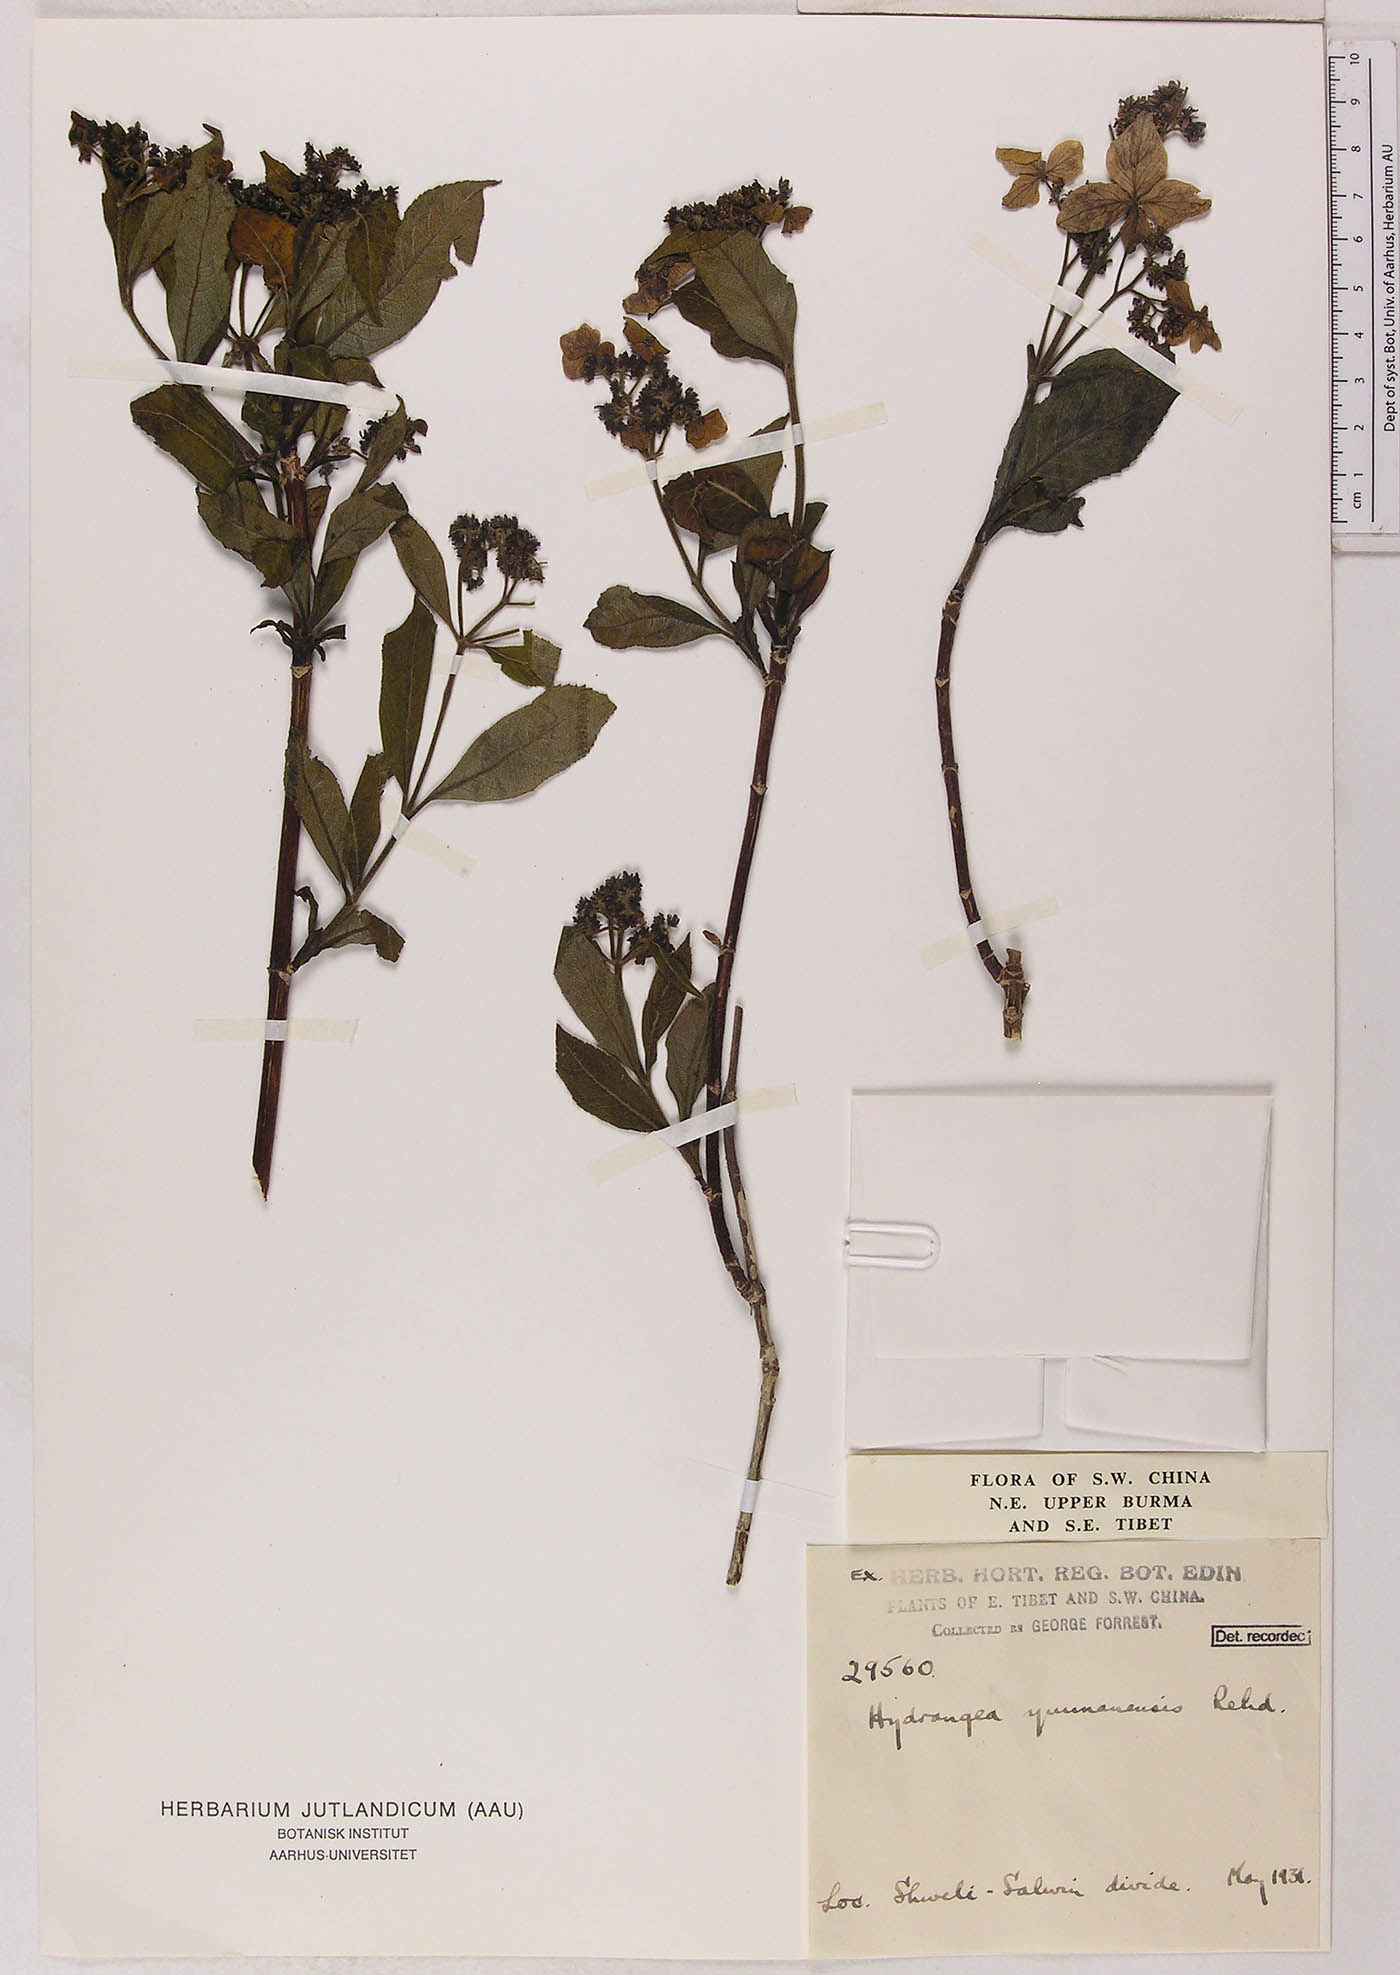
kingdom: Plantae
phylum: Tracheophyta
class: Magnoliopsida
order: Cornales
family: Hydrangeaceae
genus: Hydrangea
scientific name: Hydrangea davidii
